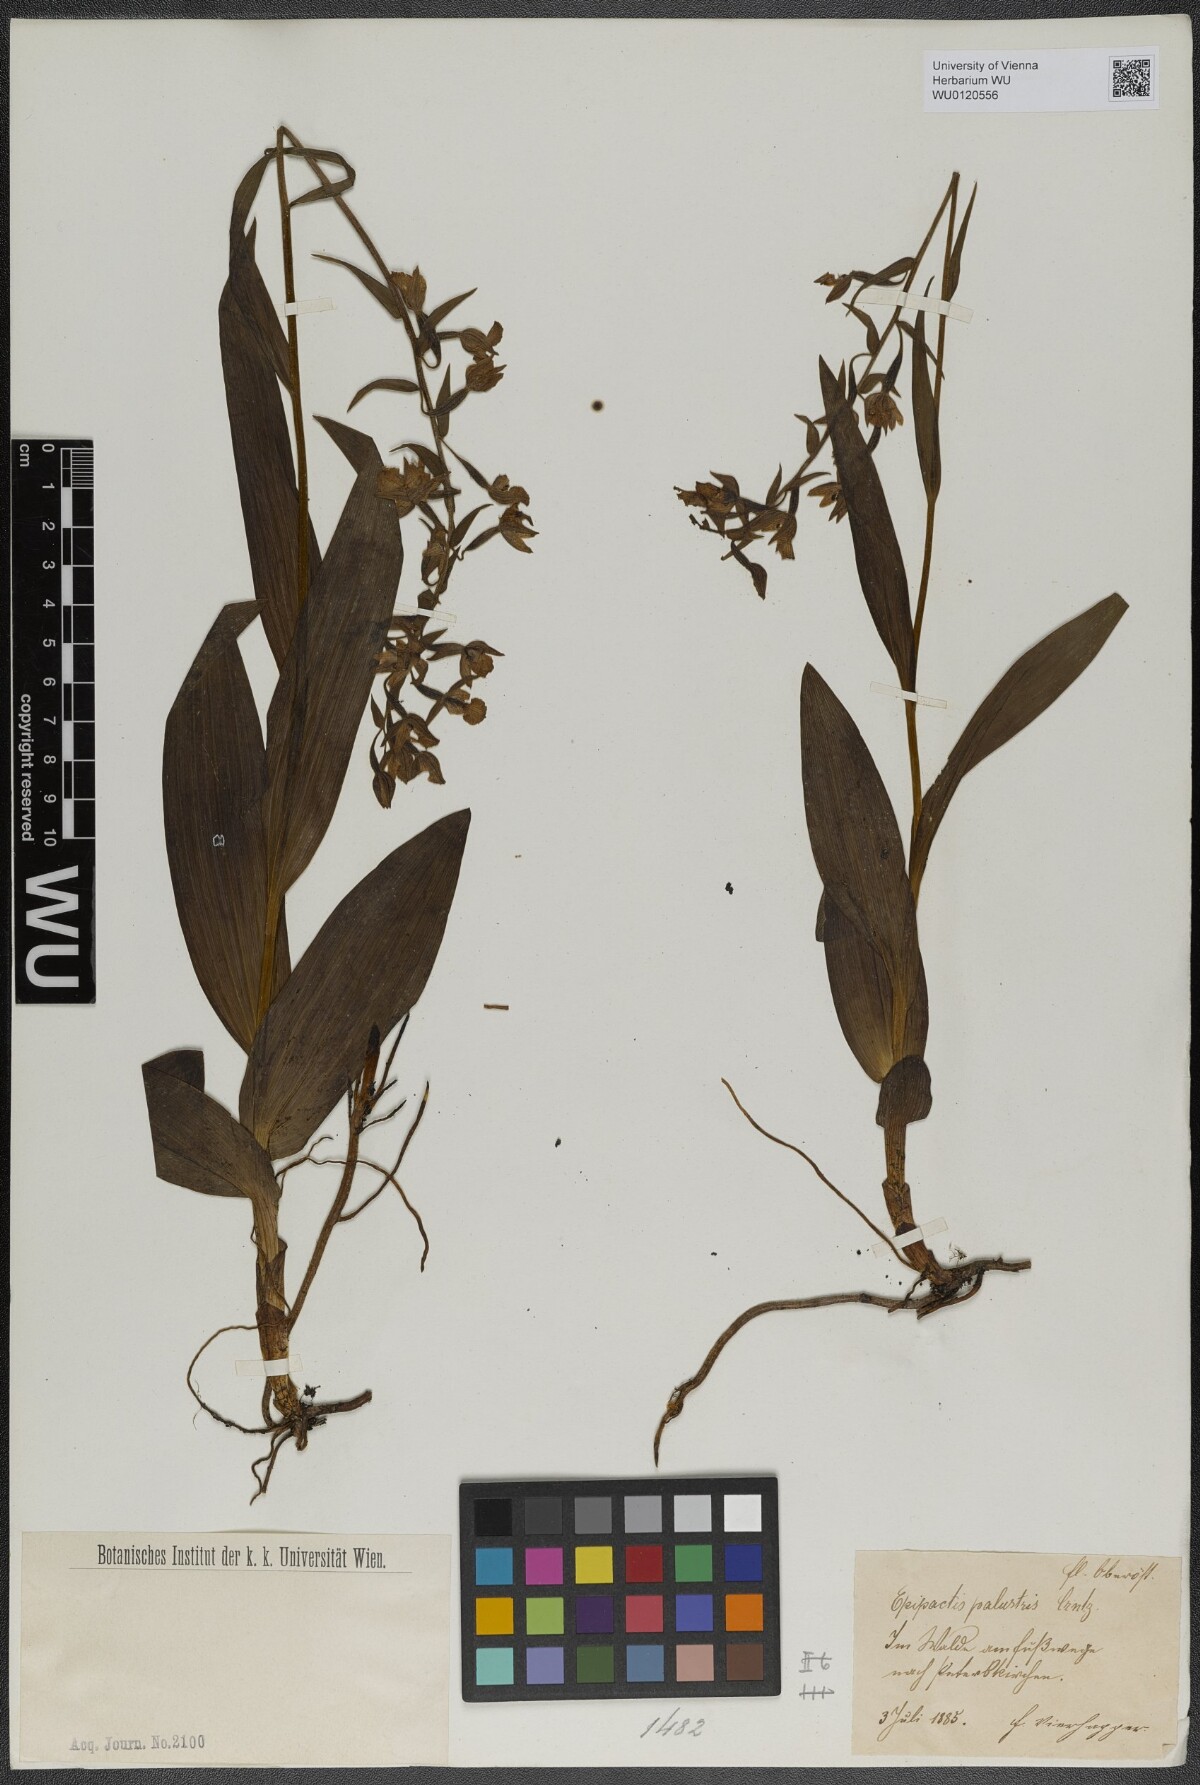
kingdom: Plantae
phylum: Tracheophyta
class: Liliopsida
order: Asparagales
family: Orchidaceae
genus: Epipactis
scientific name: Epipactis palustris
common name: Marsh helleborine
